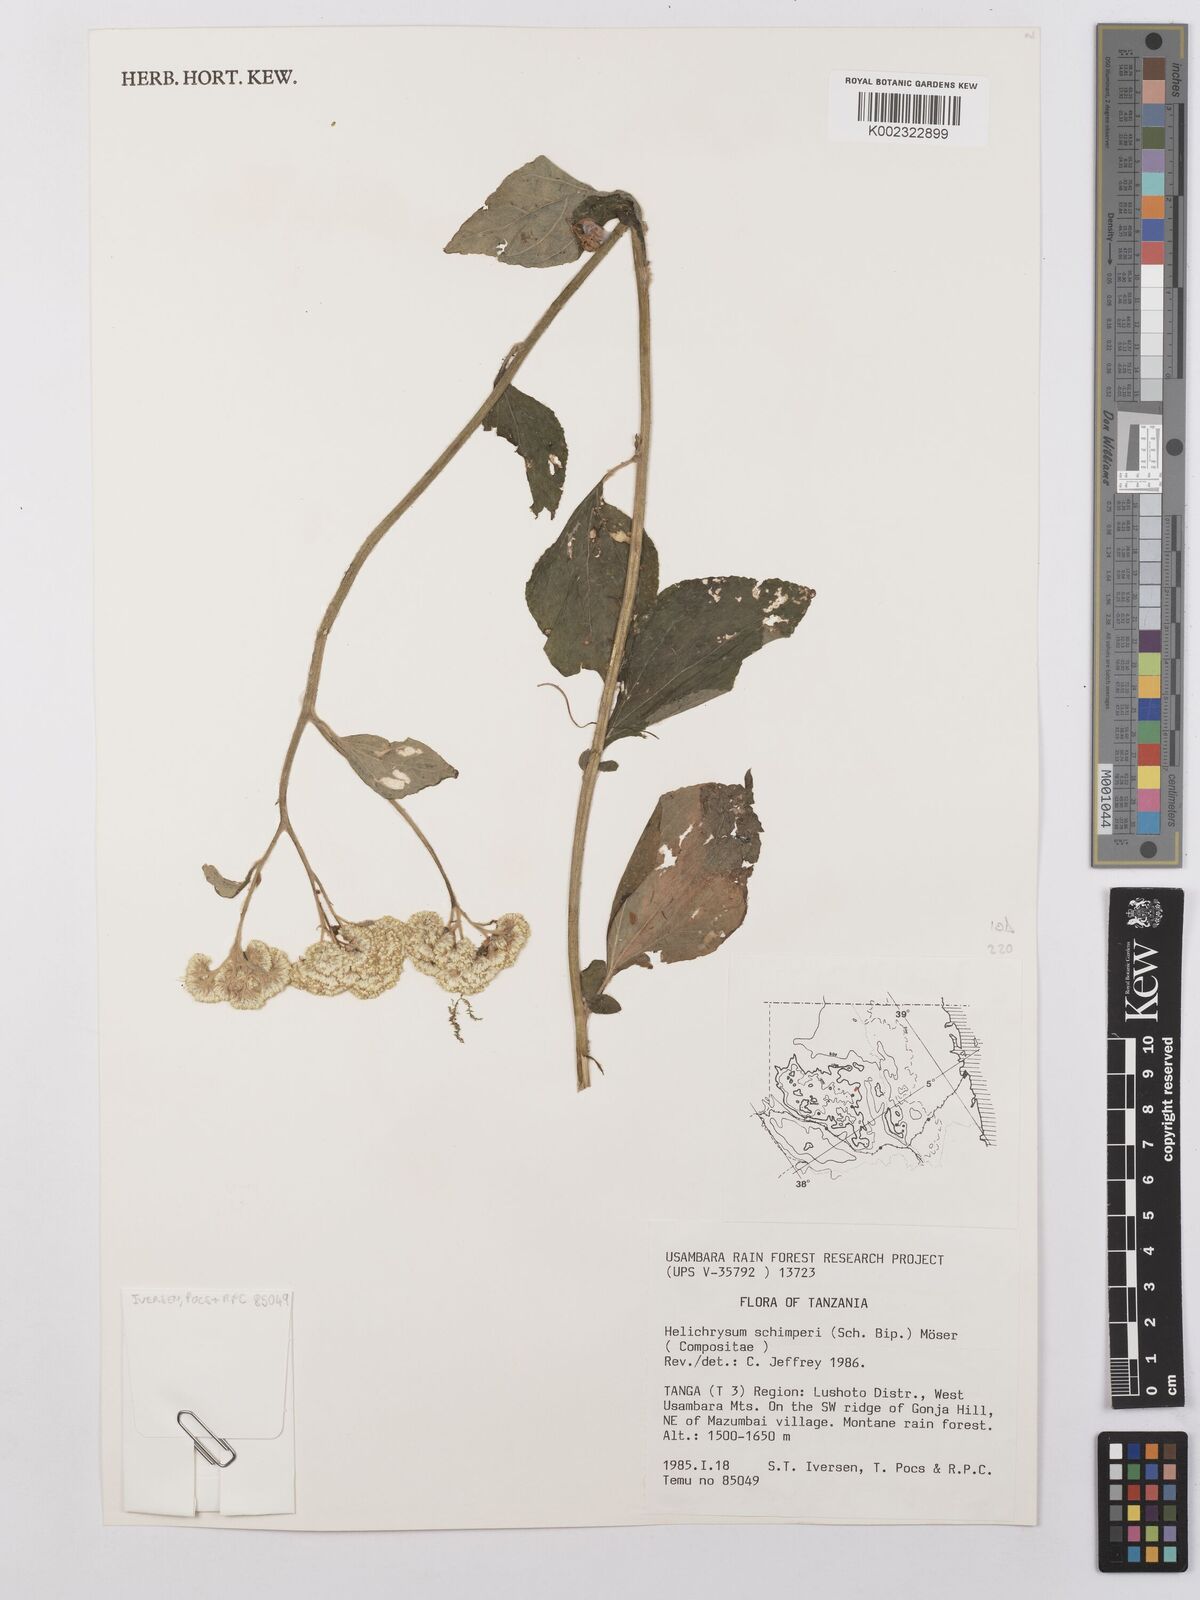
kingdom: Plantae
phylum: Tracheophyta
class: Magnoliopsida
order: Asterales
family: Asteraceae
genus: Helichrysum
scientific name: Helichrysum schimperi
